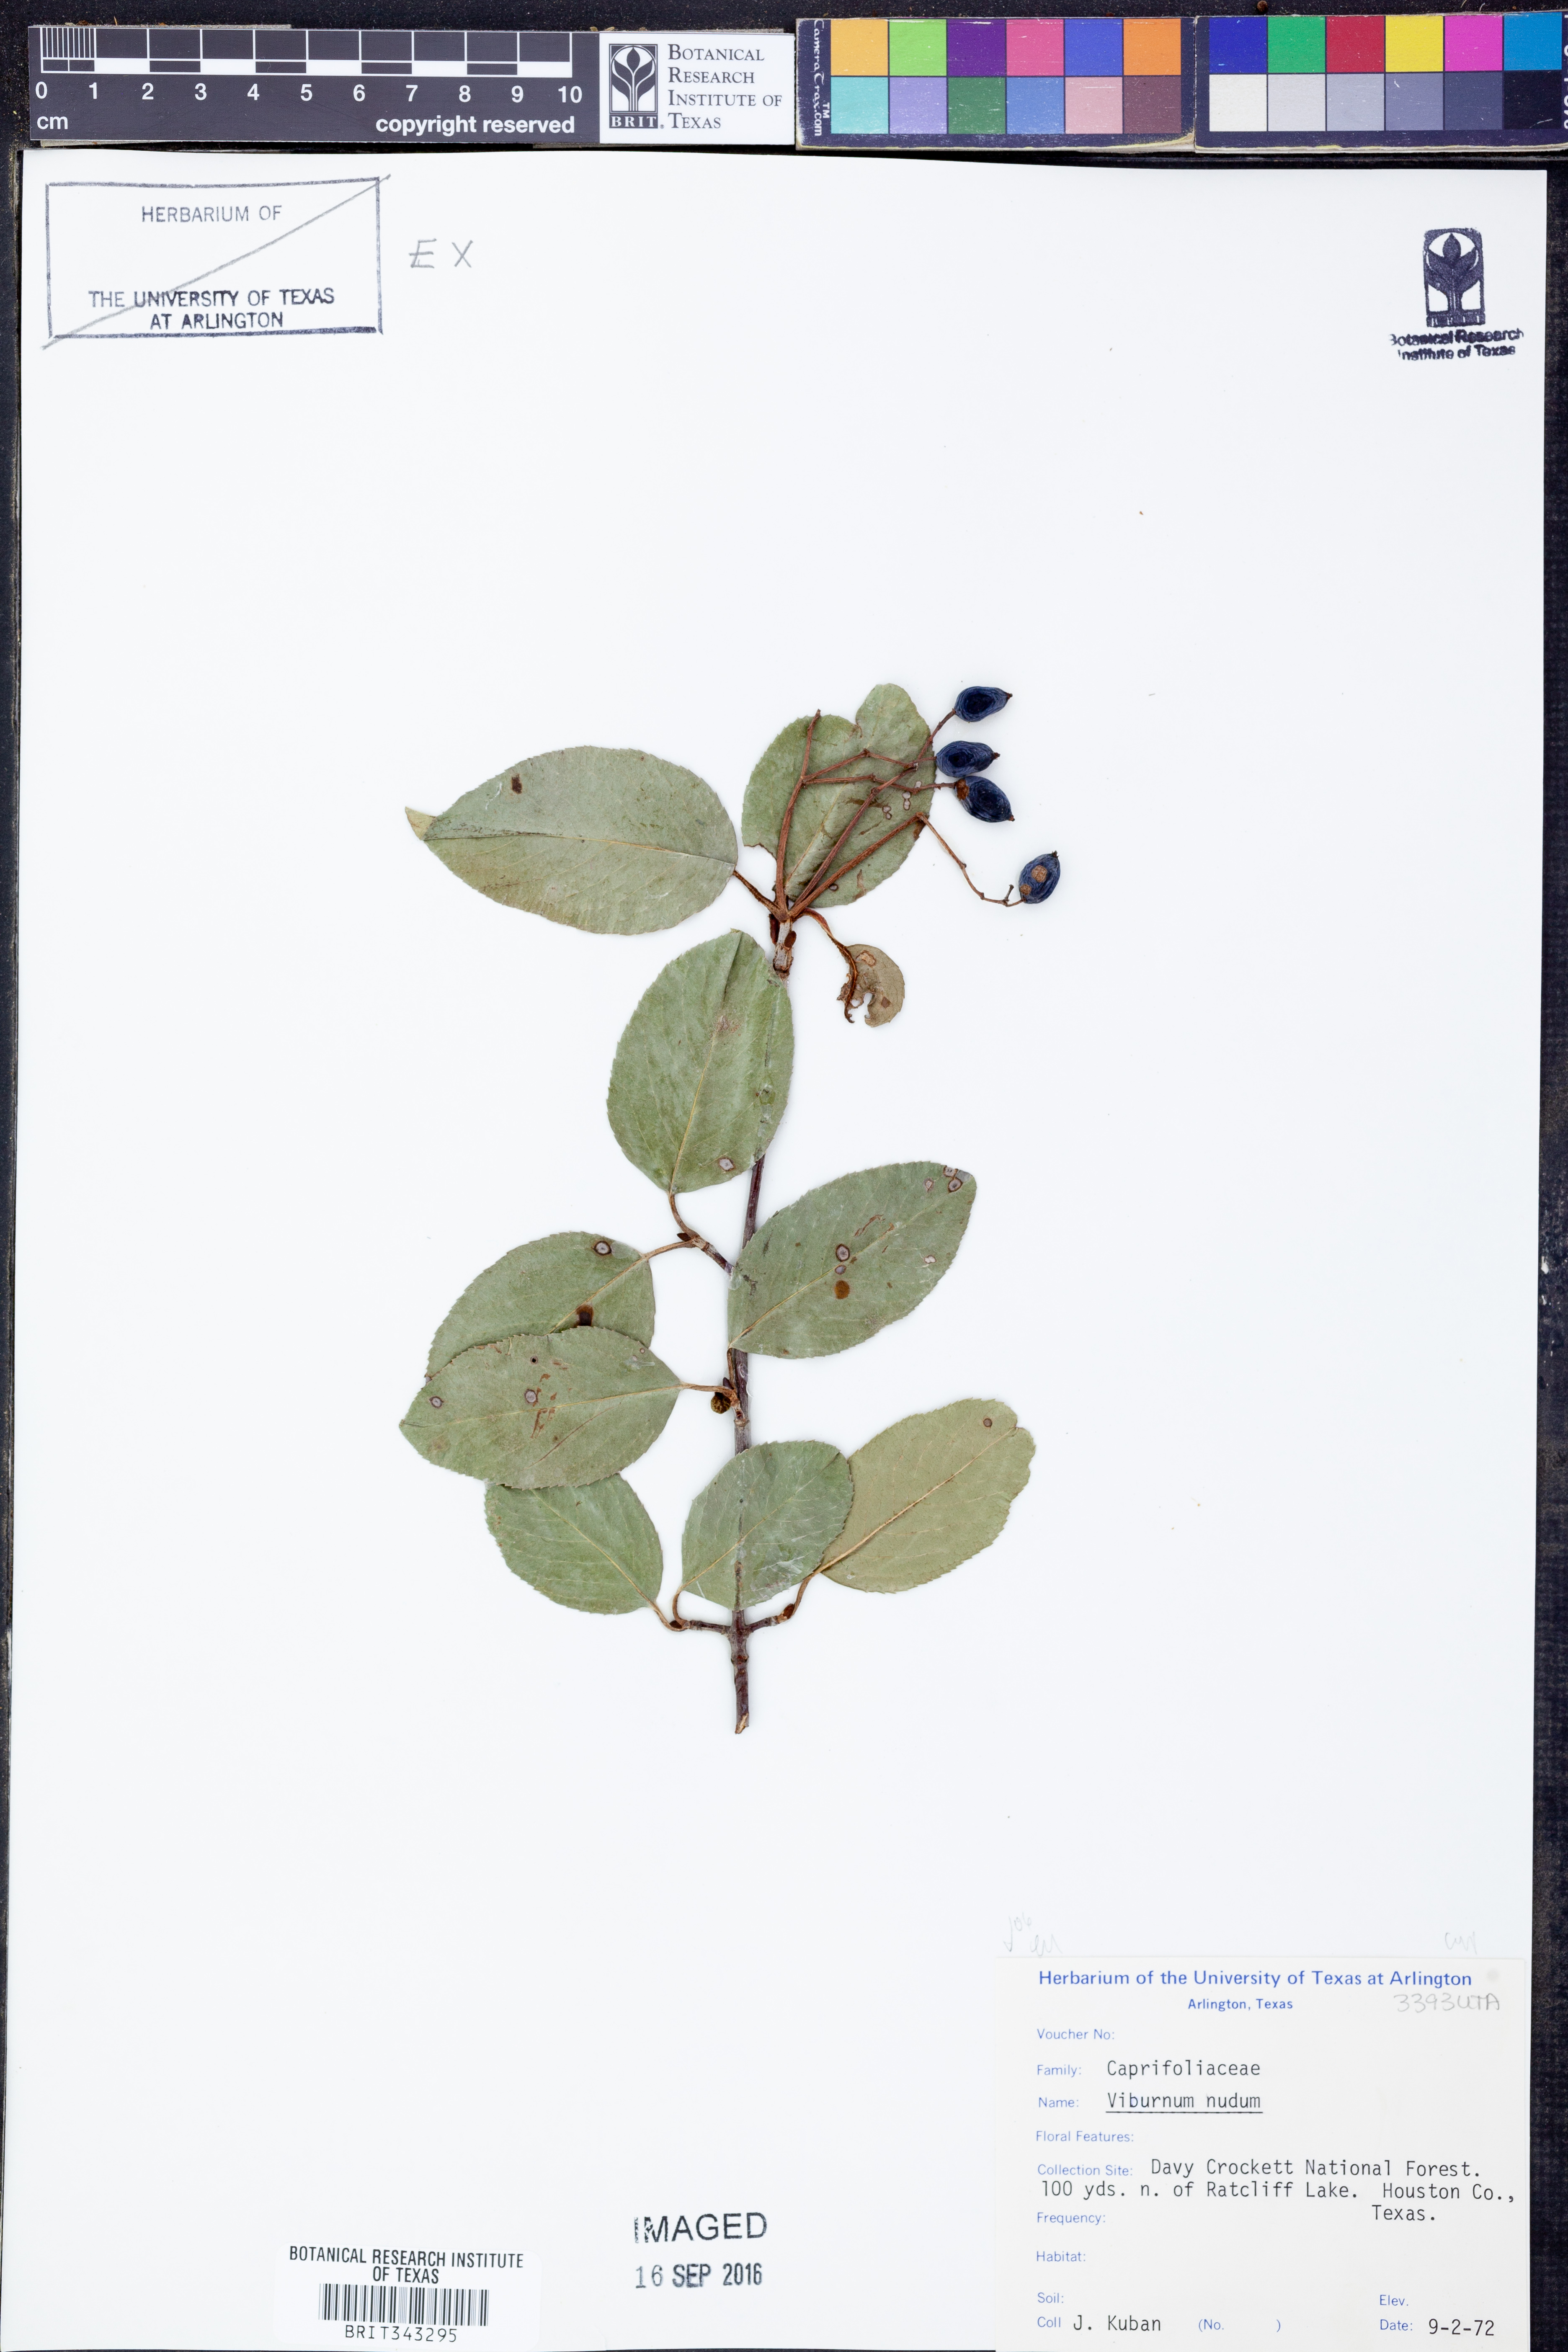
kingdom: Plantae
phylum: Tracheophyta
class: Magnoliopsida
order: Dipsacales
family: Viburnaceae
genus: Viburnum
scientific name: Viburnum nudum
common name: Possum haw
